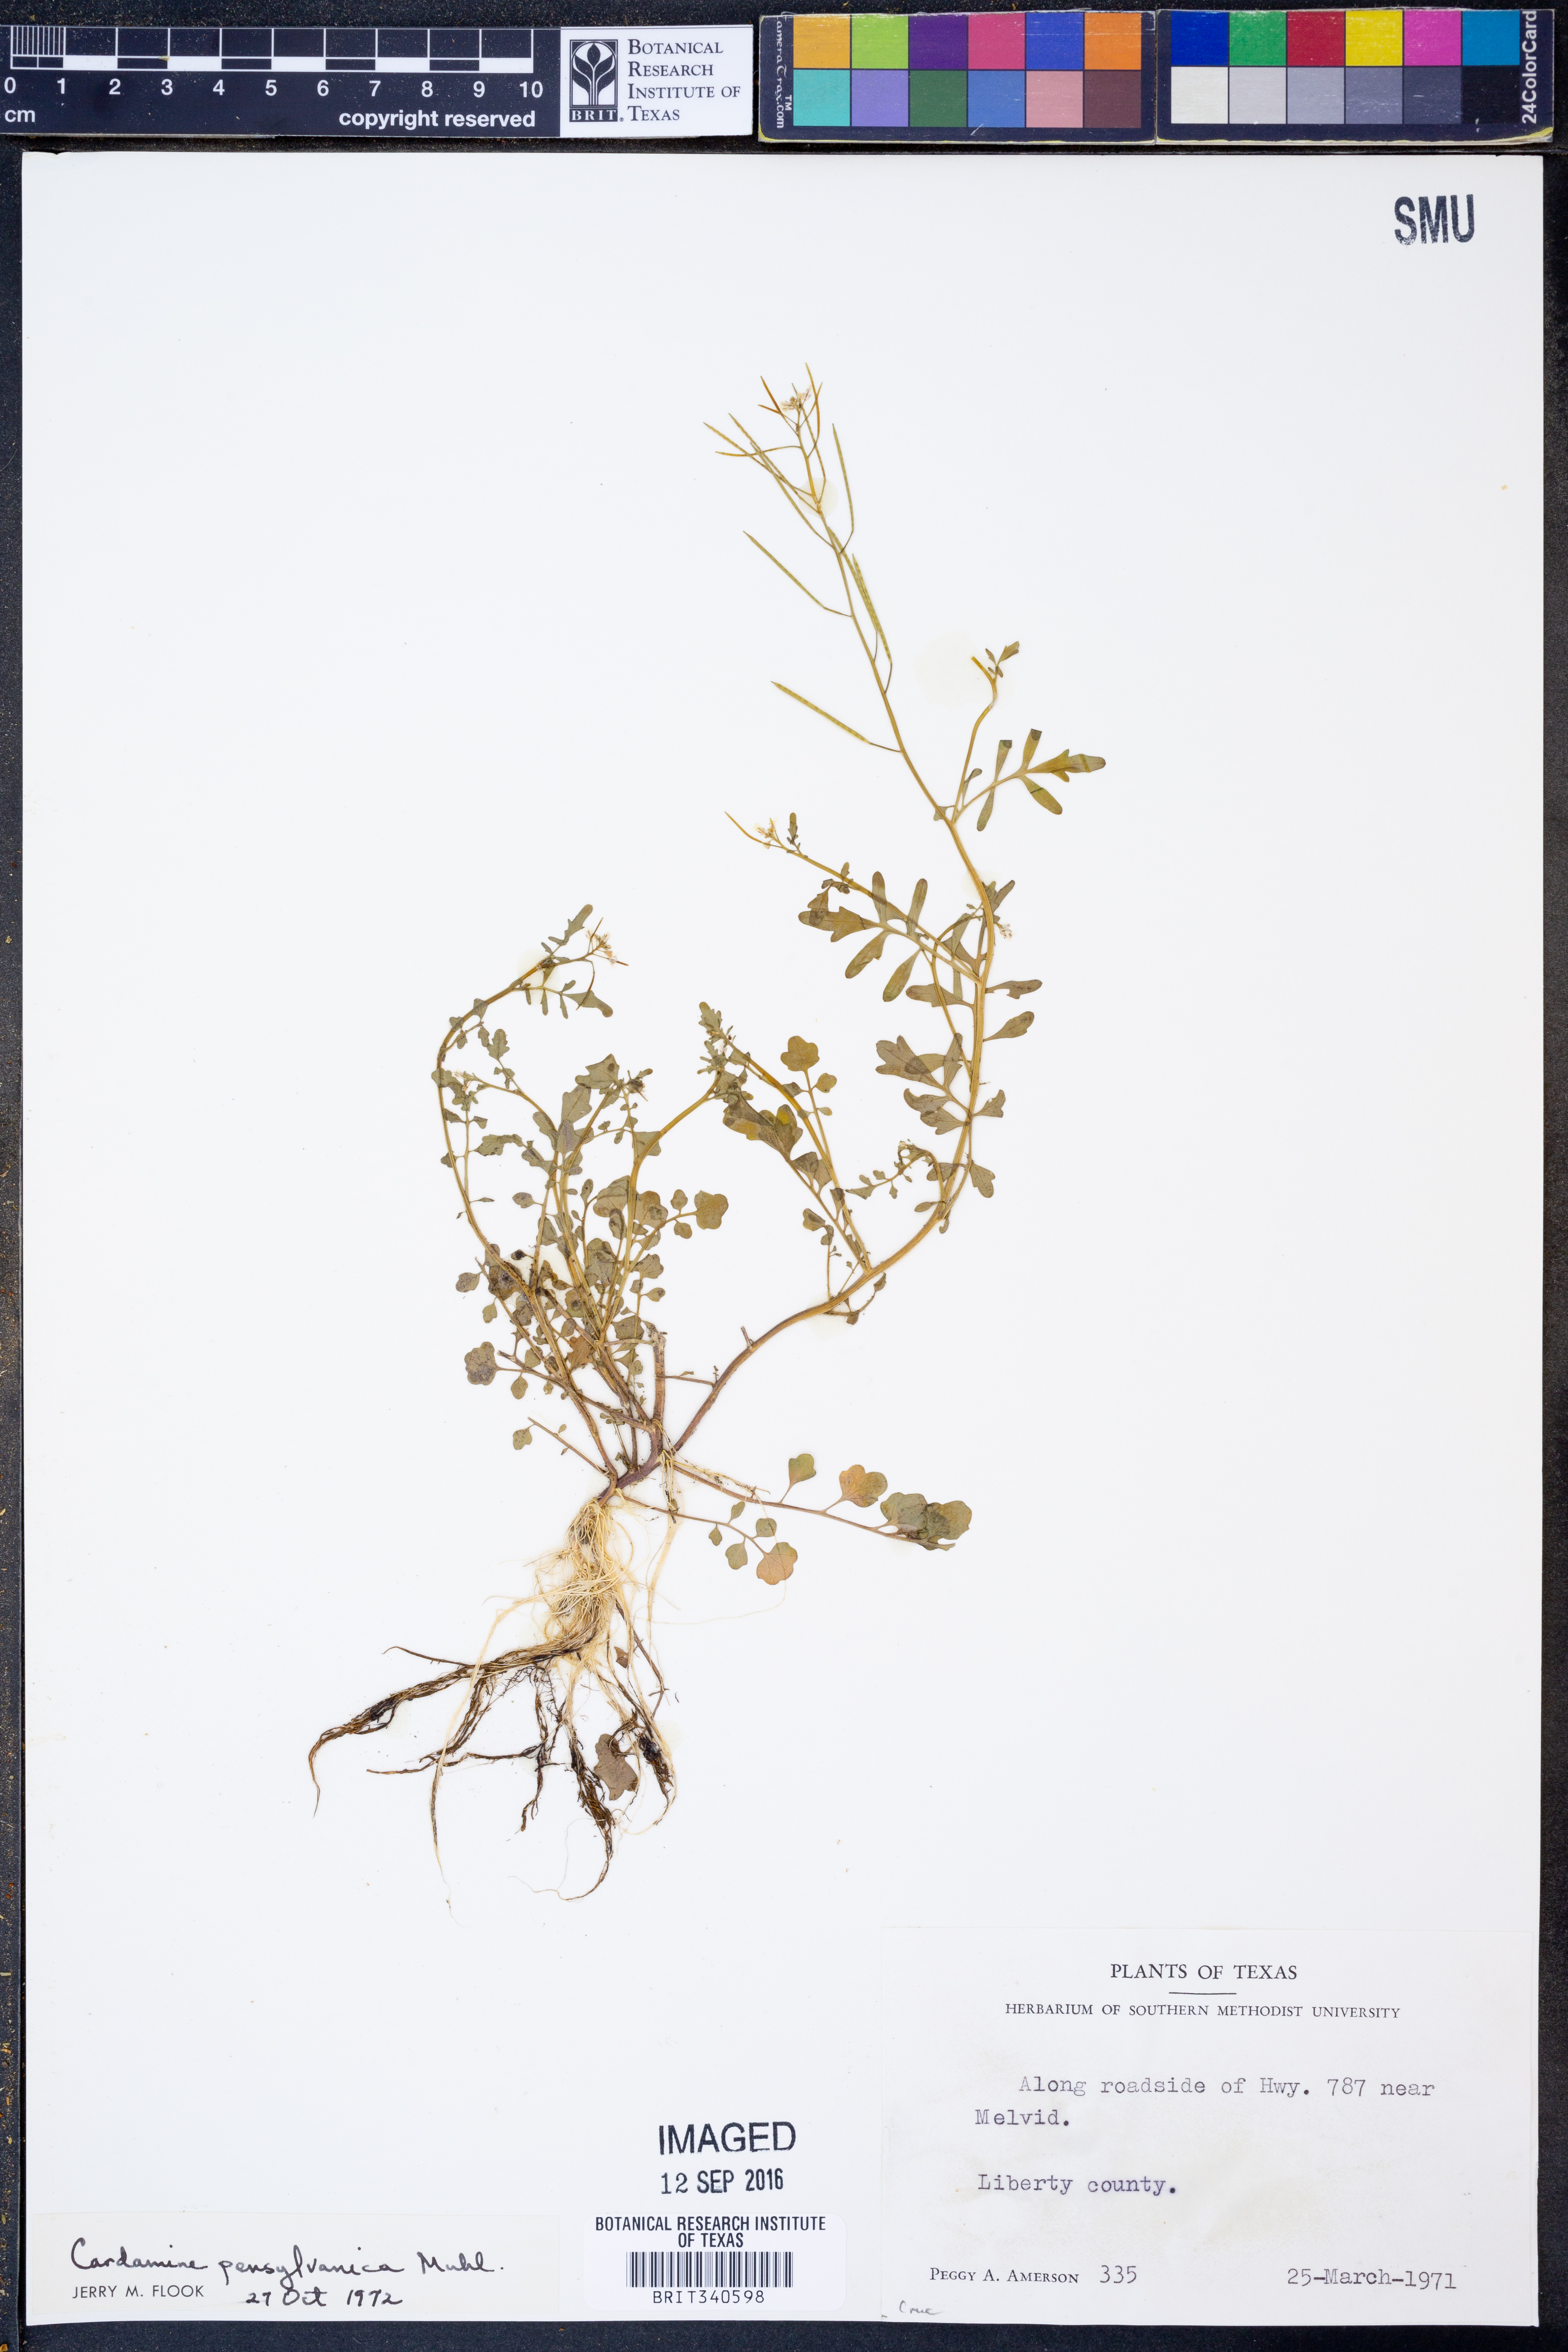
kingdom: Plantae
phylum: Tracheophyta
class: Magnoliopsida
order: Brassicales
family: Brassicaceae
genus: Cardamine
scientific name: Cardamine pensylvanica
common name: Pennsylvania bittercress
